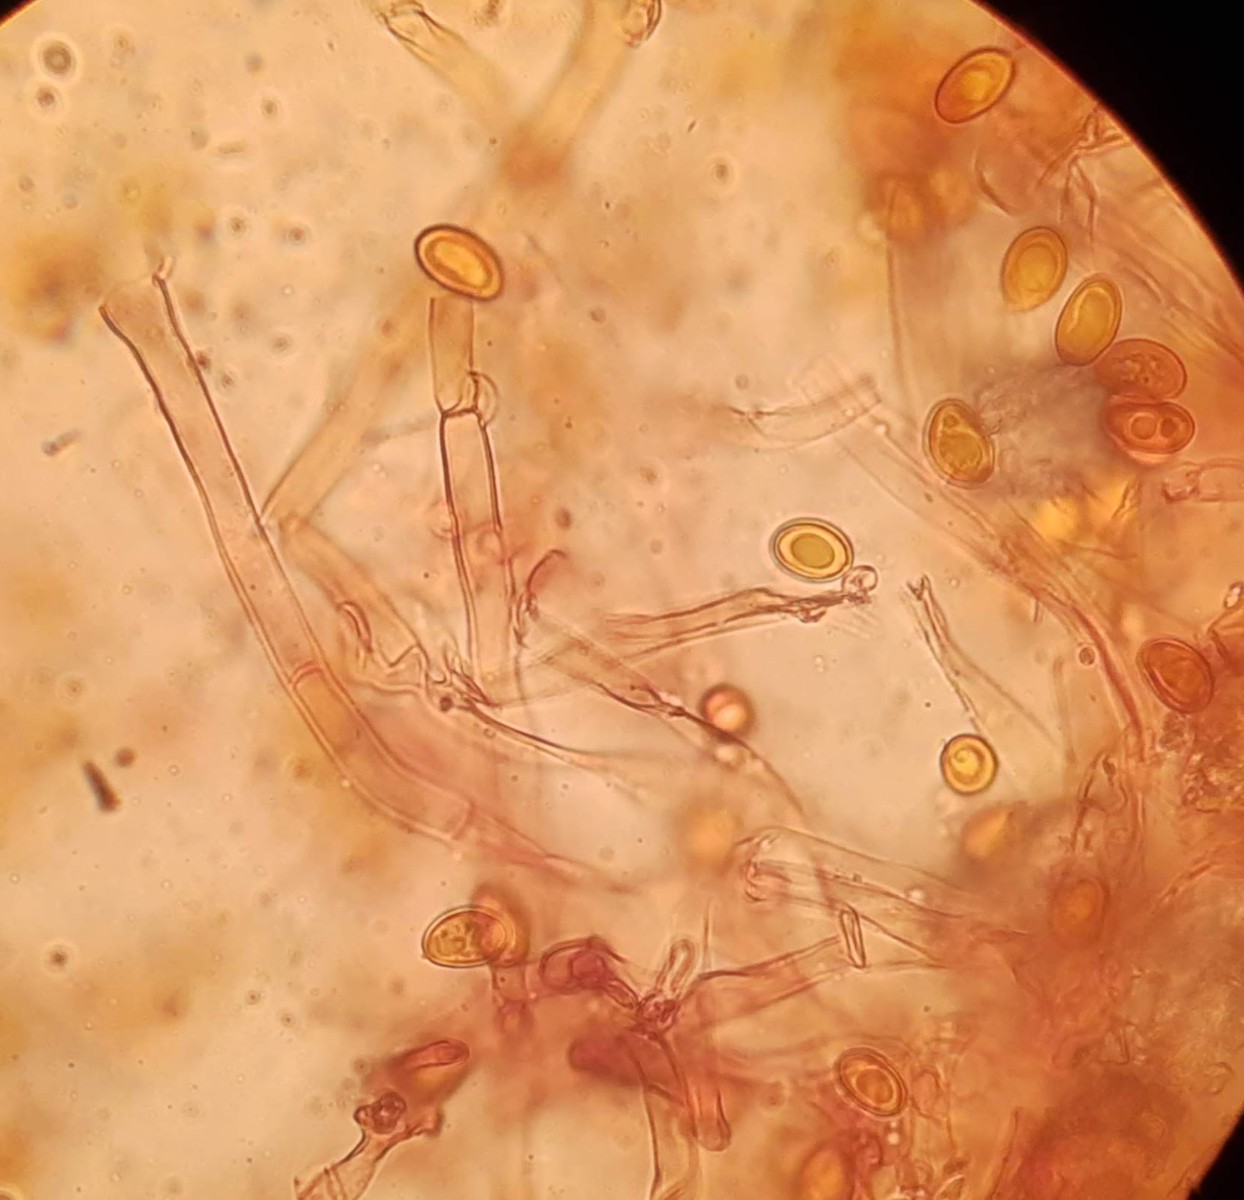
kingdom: Fungi
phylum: Basidiomycota
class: Agaricomycetes
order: Boletales
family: Serpulaceae
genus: Serpula
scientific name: Serpula himantioides
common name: tyndkødet hussvamp
